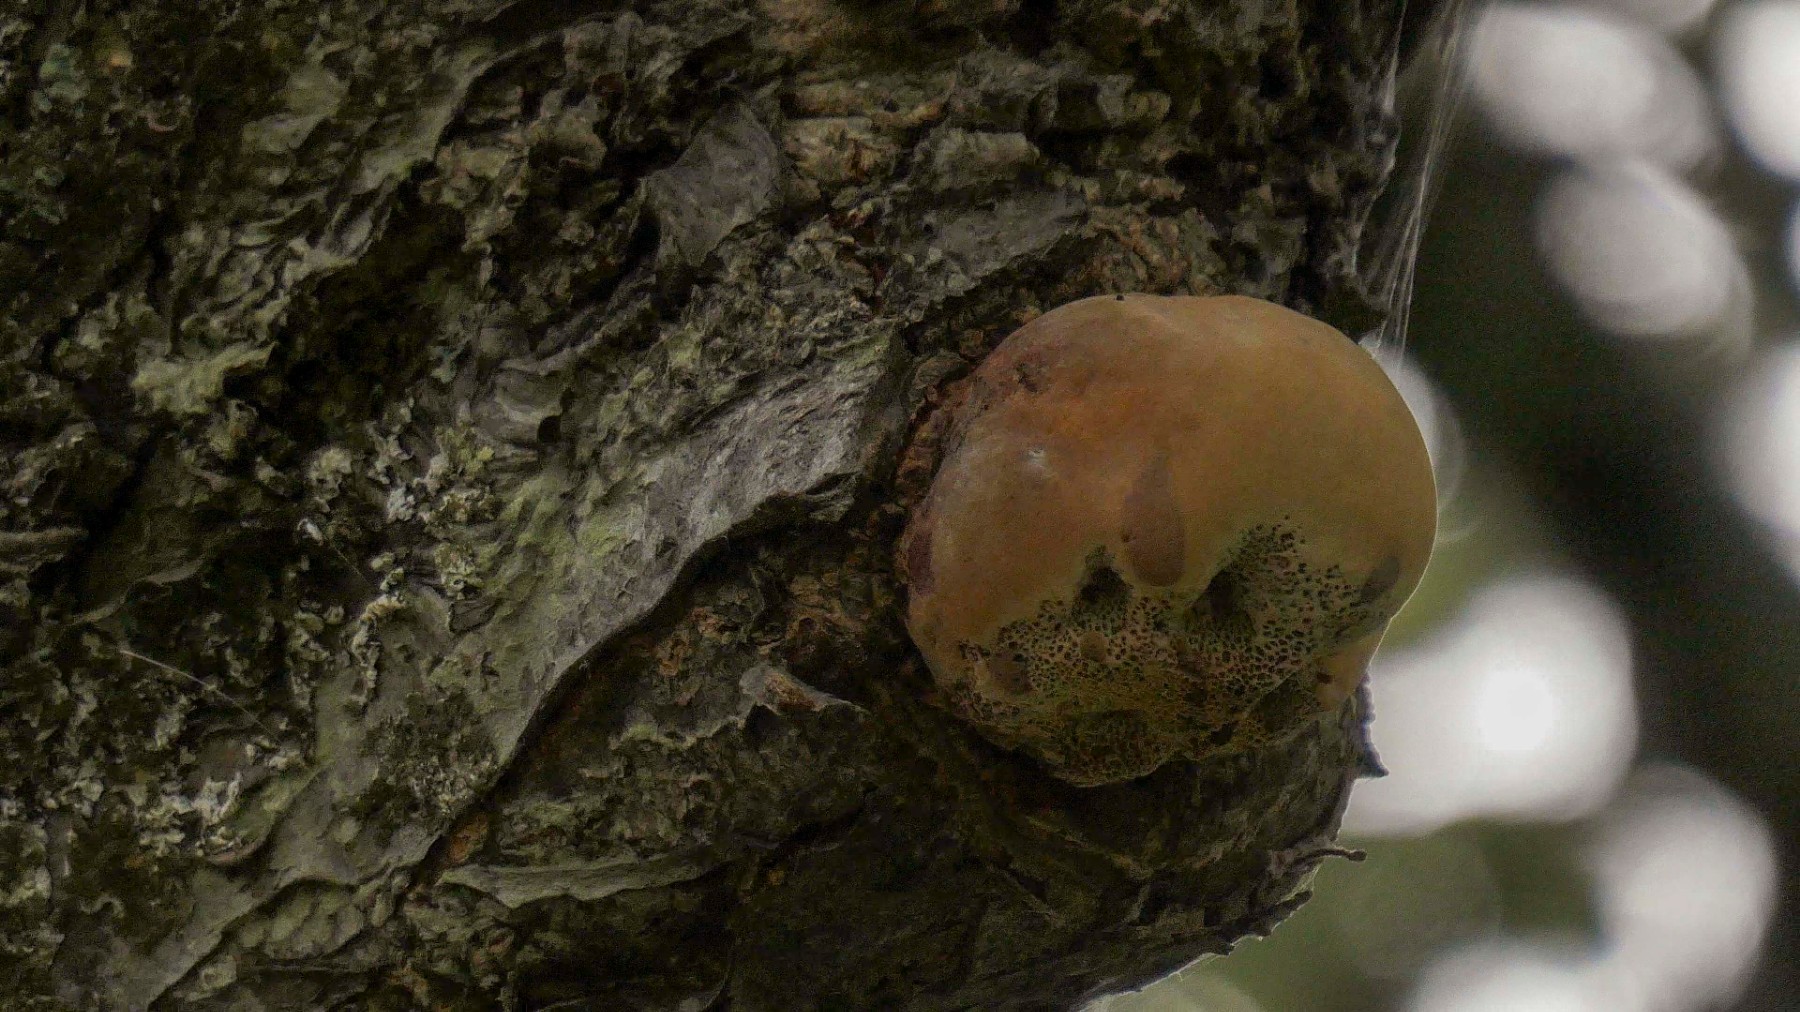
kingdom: Fungi
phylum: Basidiomycota
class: Agaricomycetes
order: Hymenochaetales
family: Hymenochaetaceae
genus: Inonotus
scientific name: Inonotus hispidus
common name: børstehåret spejlporesvamp
